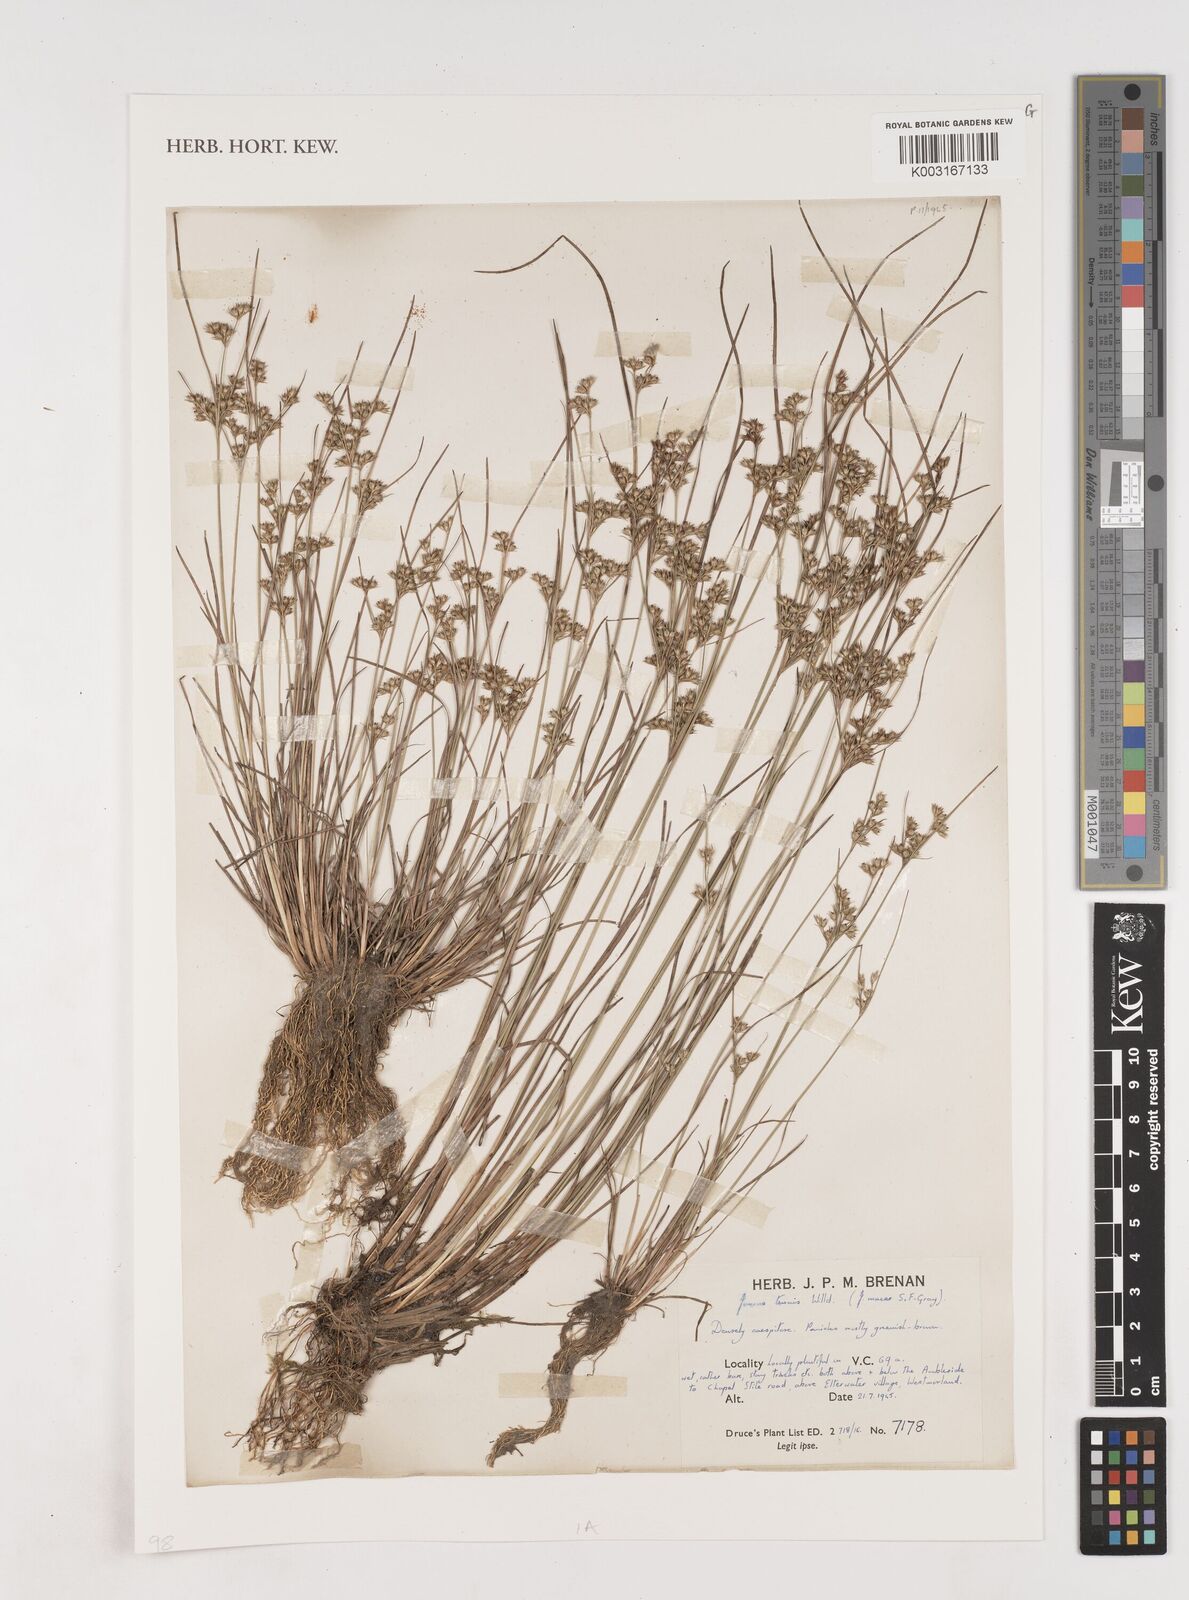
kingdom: Plantae
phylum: Tracheophyta
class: Liliopsida
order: Poales
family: Juncaceae
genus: Juncus
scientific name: Juncus tenuis
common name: Slender rush
